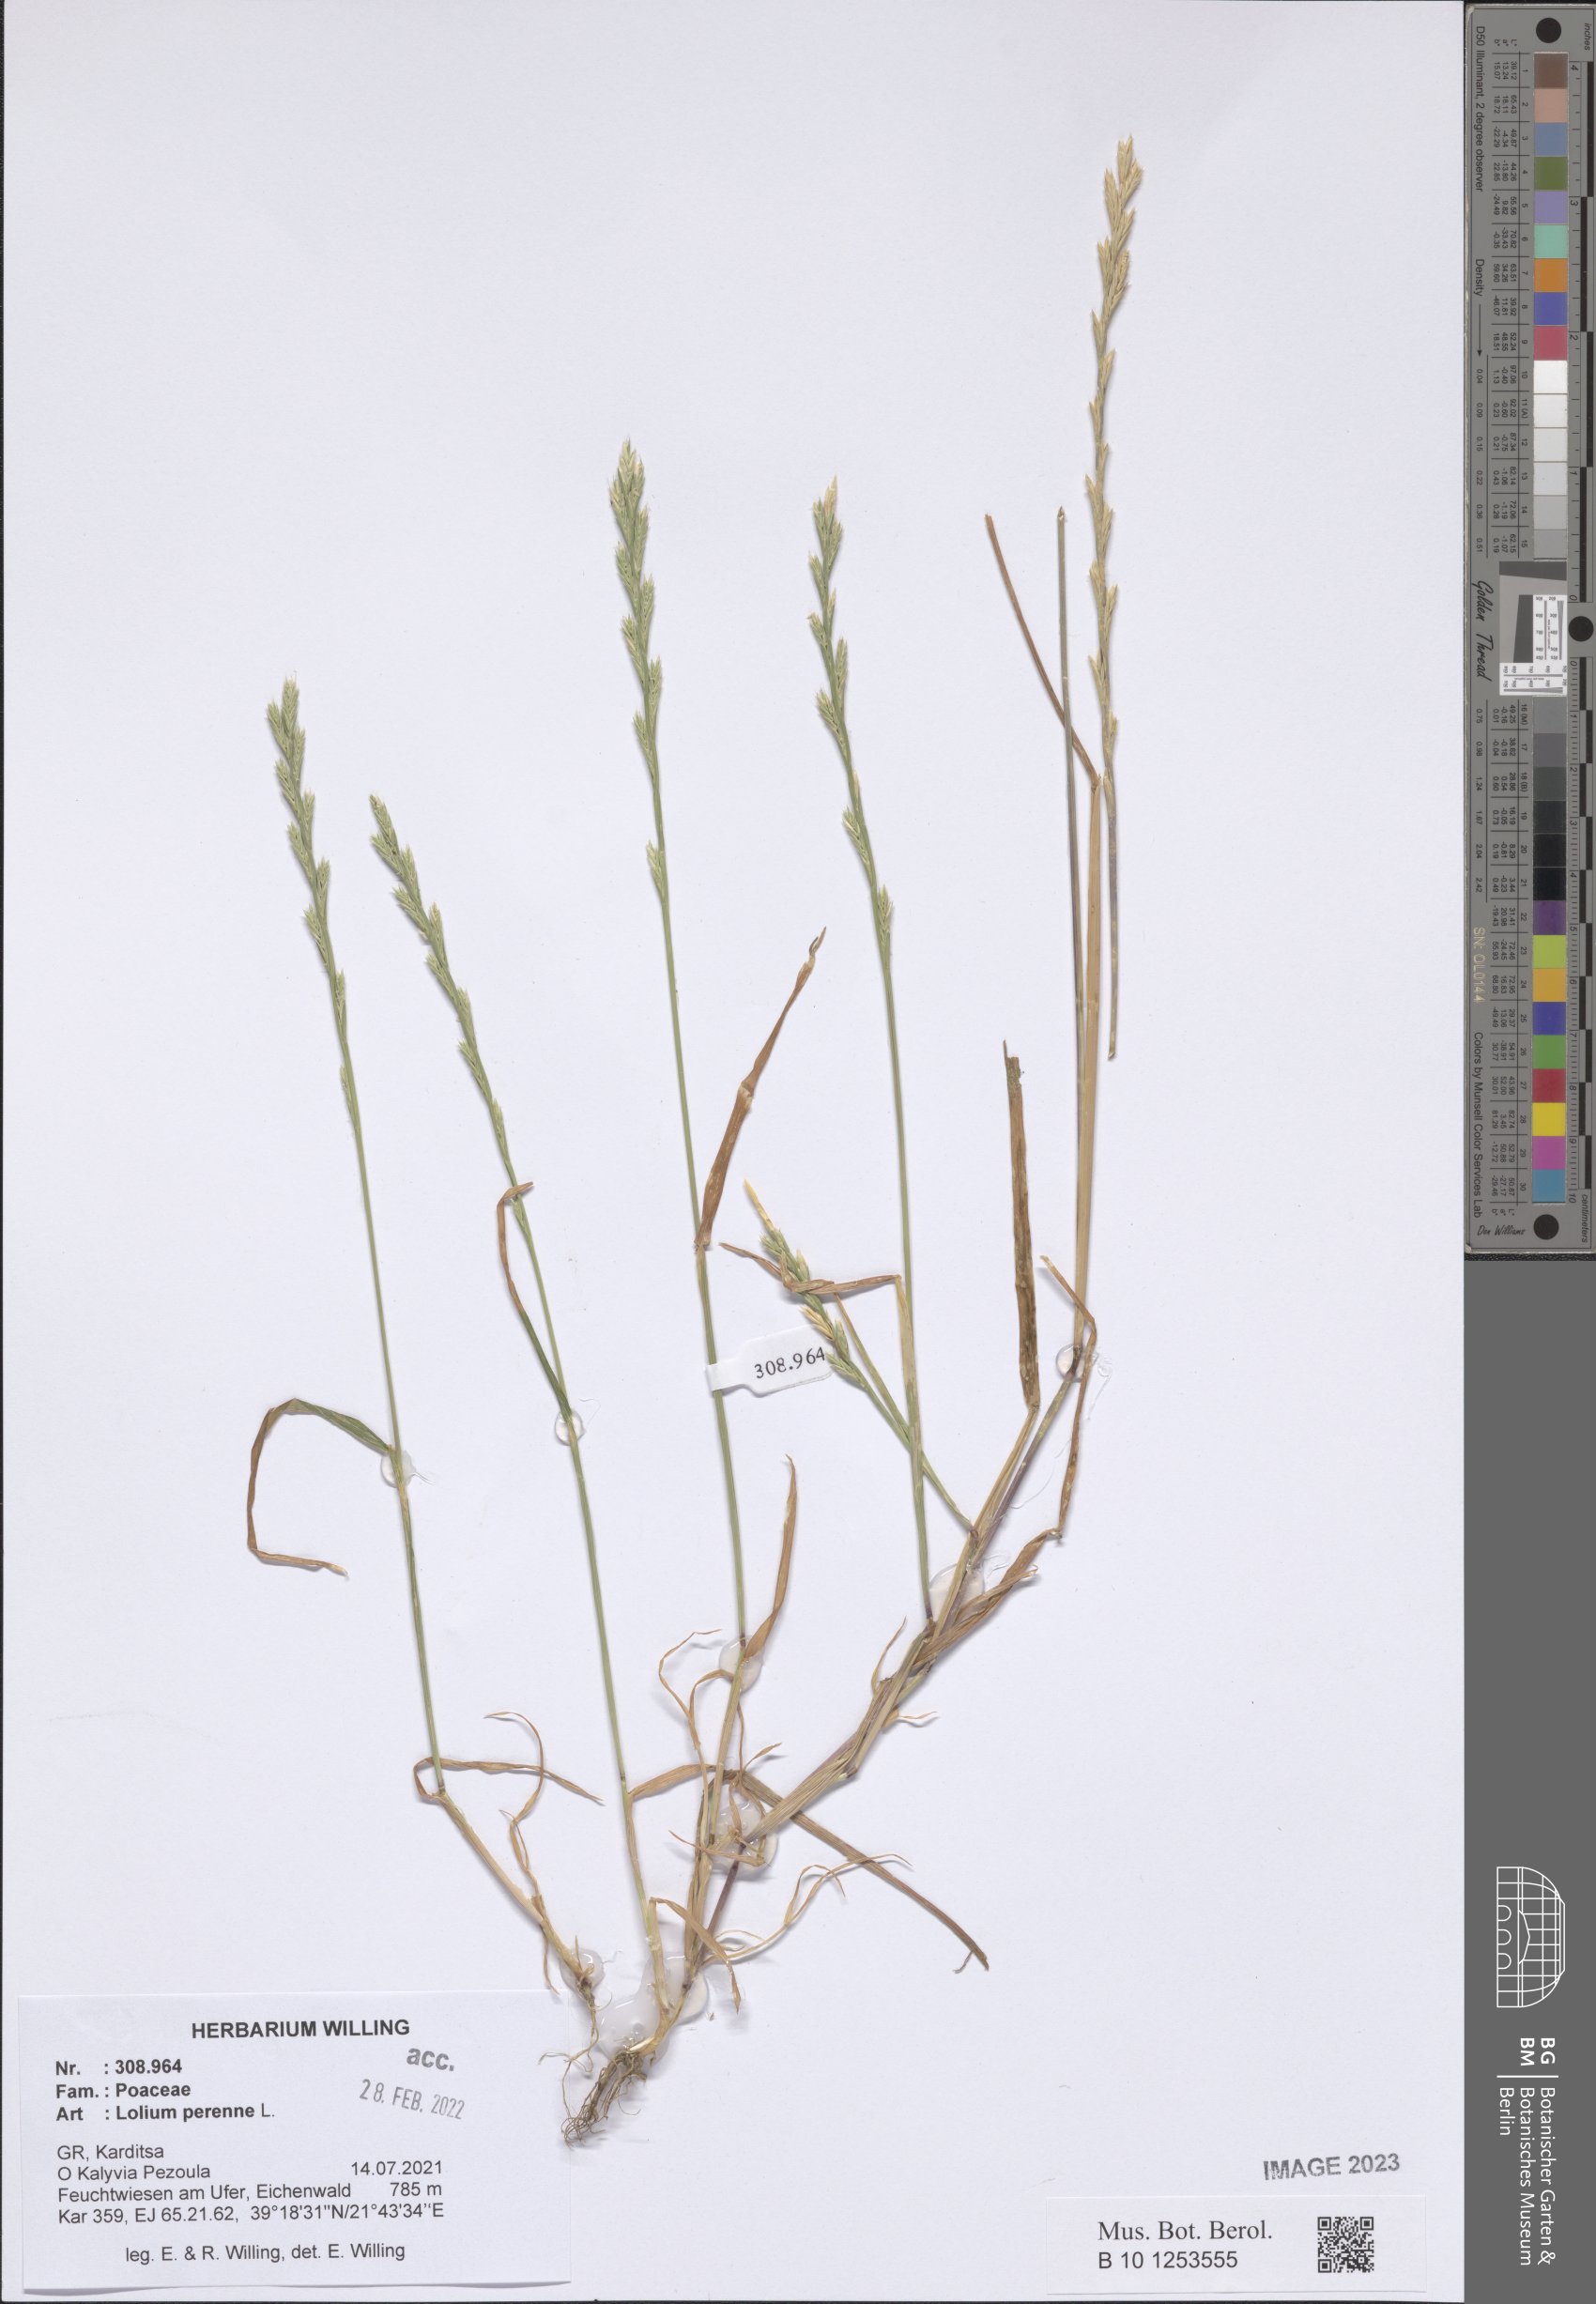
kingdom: Plantae
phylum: Tracheophyta
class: Liliopsida
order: Poales
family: Poaceae
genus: Lolium
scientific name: Lolium perenne
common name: Perennial ryegrass
